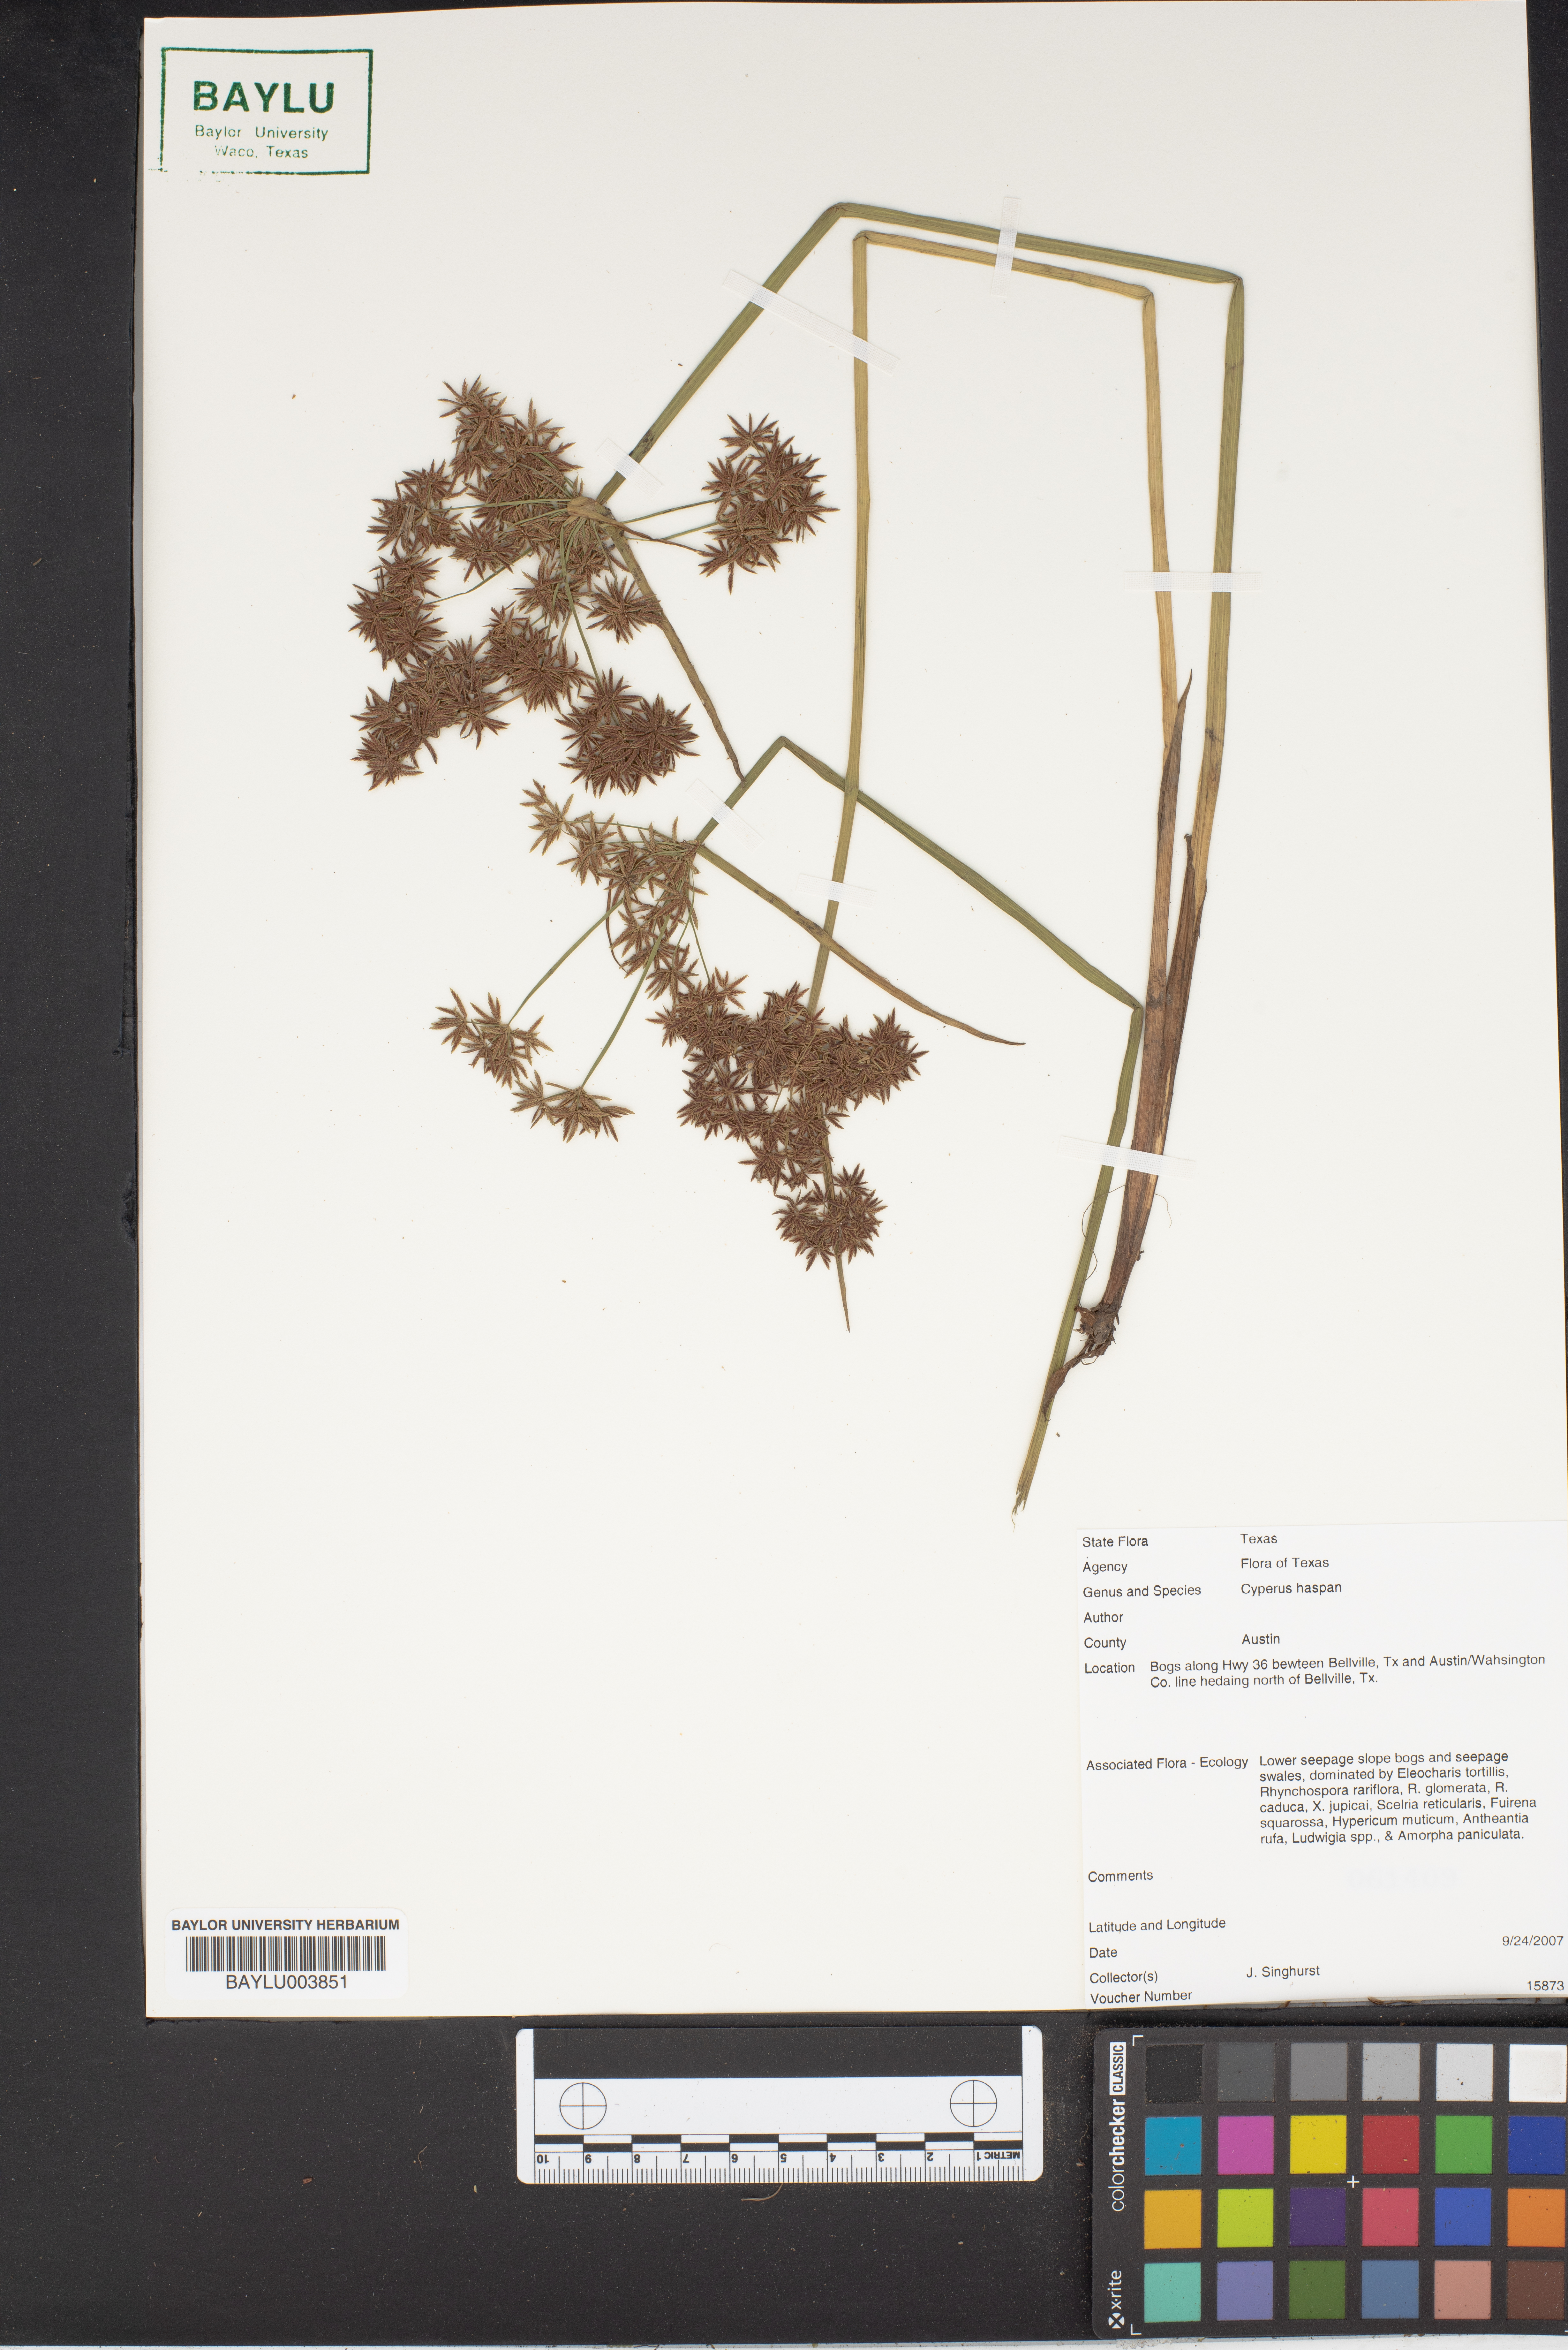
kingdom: Plantae
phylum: Tracheophyta
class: Liliopsida
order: Poales
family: Cyperaceae
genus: Cyperus
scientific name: Cyperus haspan
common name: Haspan flatsedge
